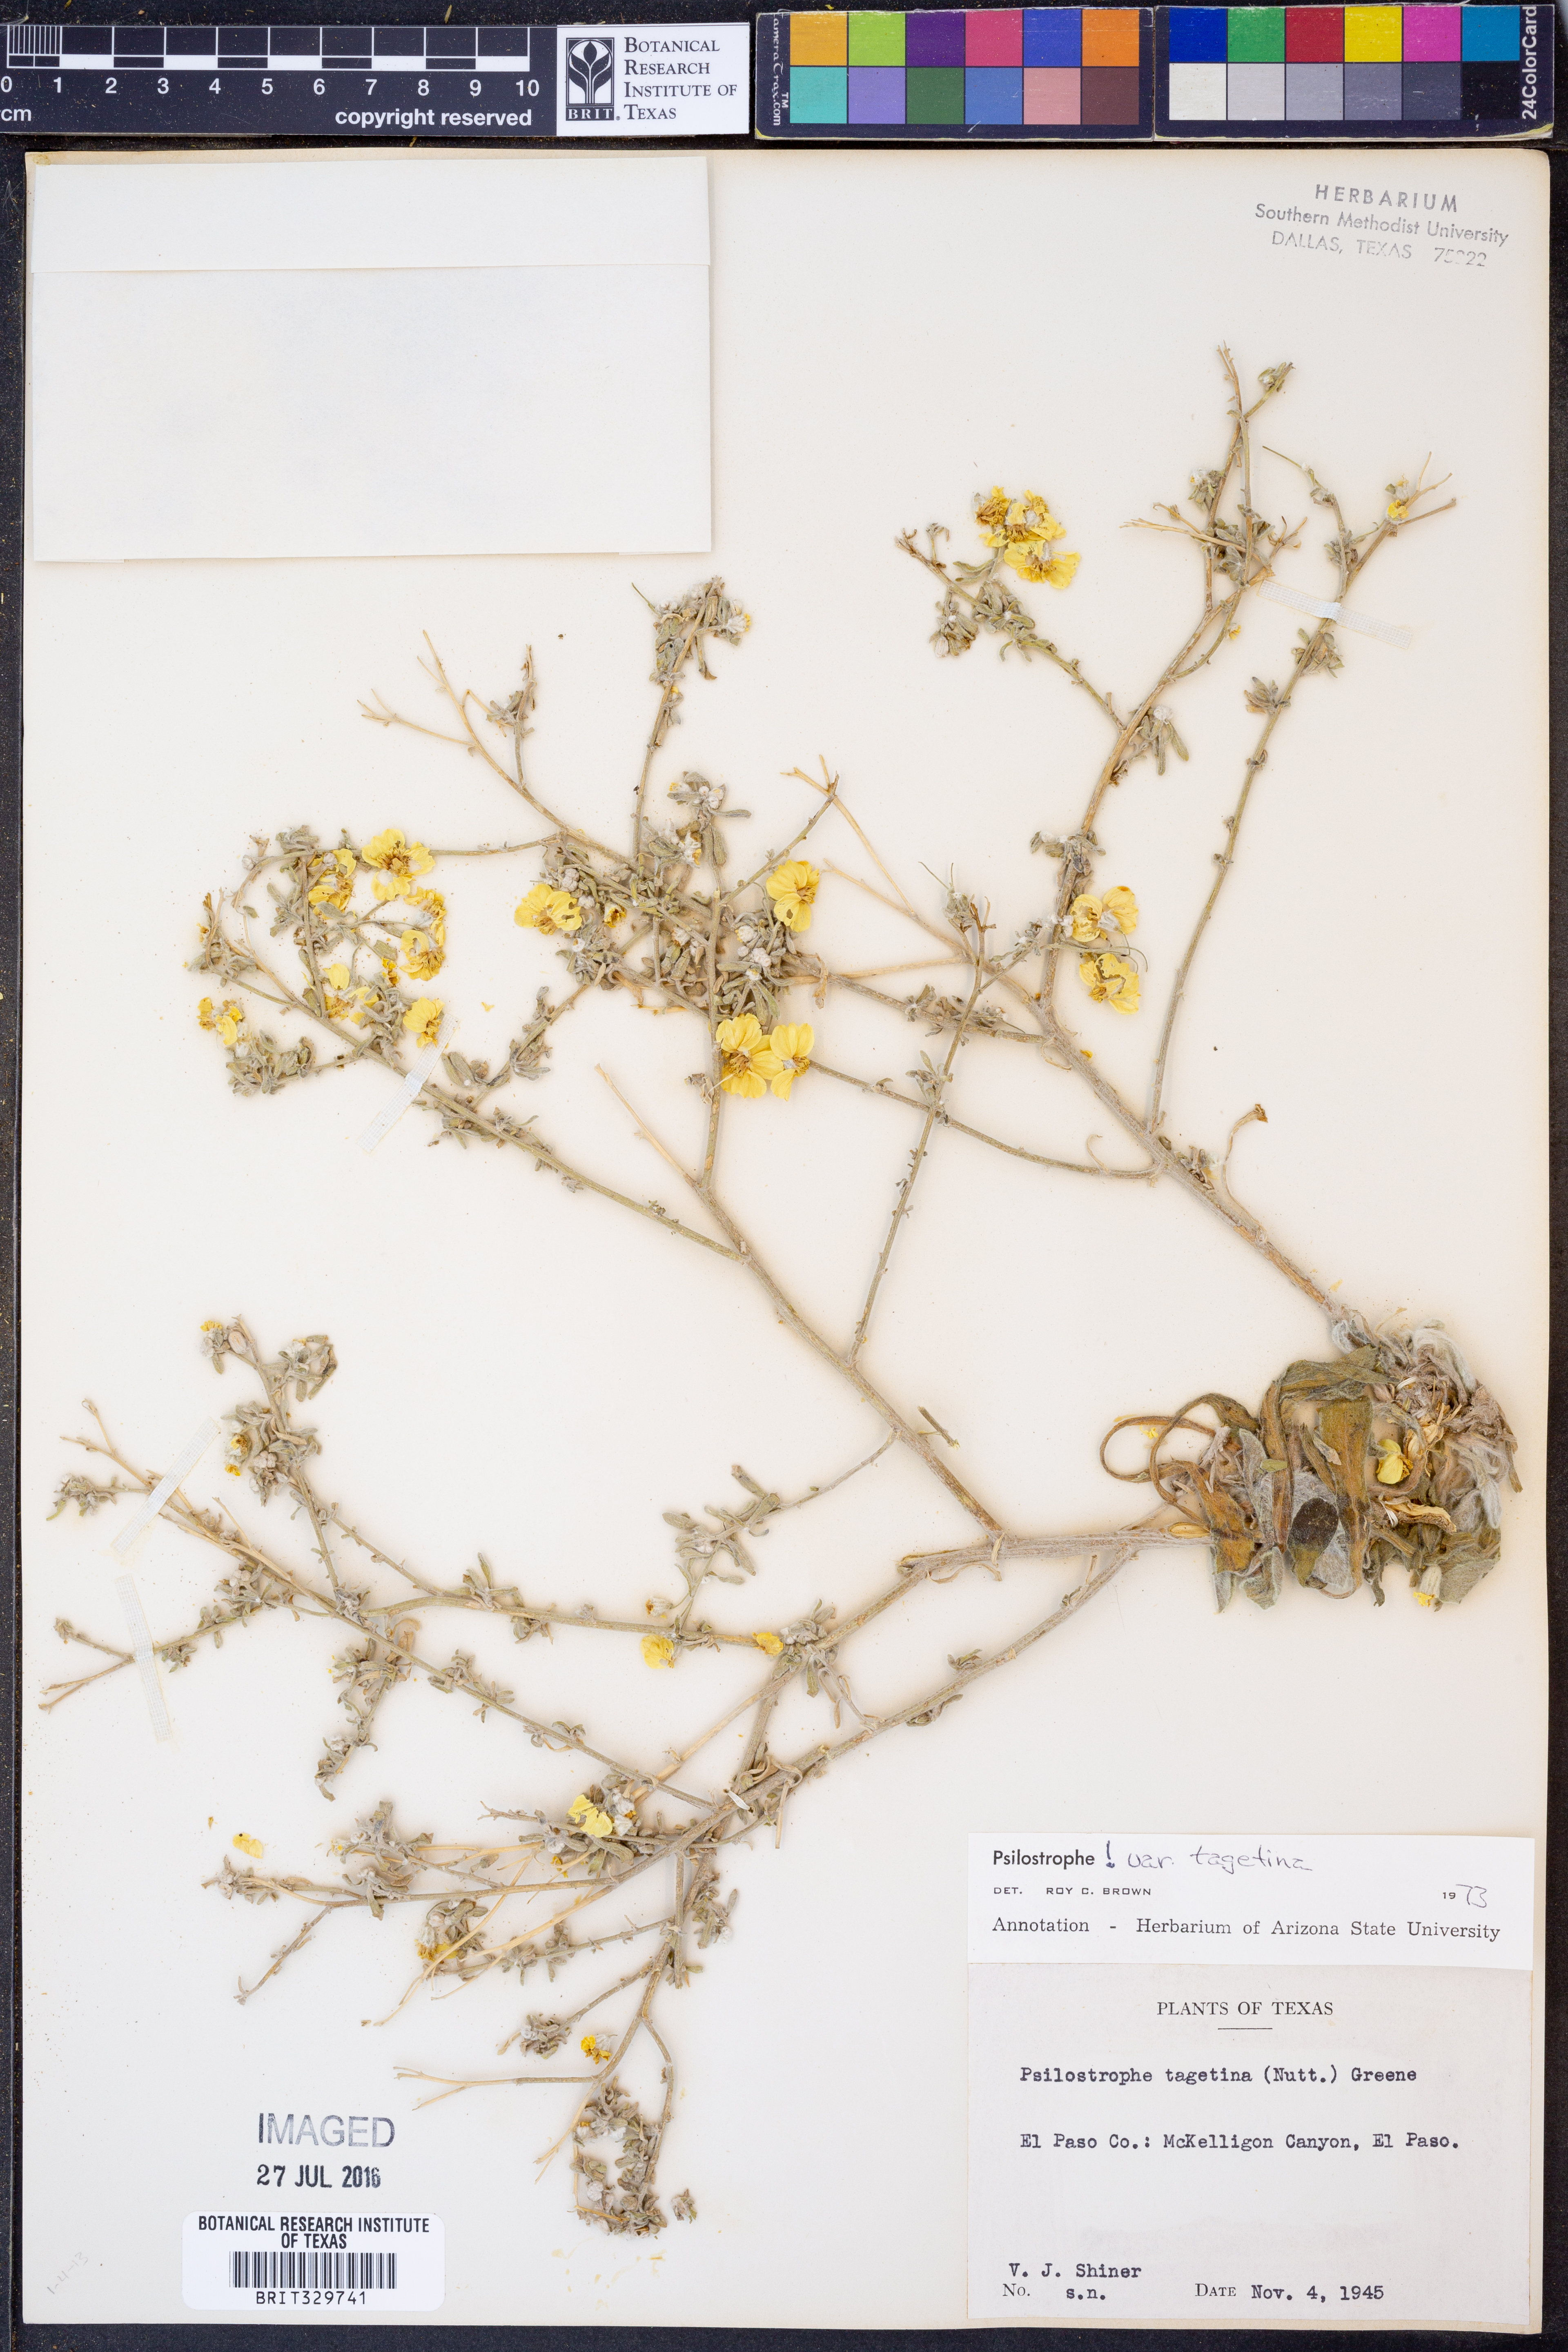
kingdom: Plantae
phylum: Tracheophyta
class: Magnoliopsida
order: Asterales
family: Asteraceae
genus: Psilostrophe
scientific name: Psilostrophe tagetina
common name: Marigold paper-flower
